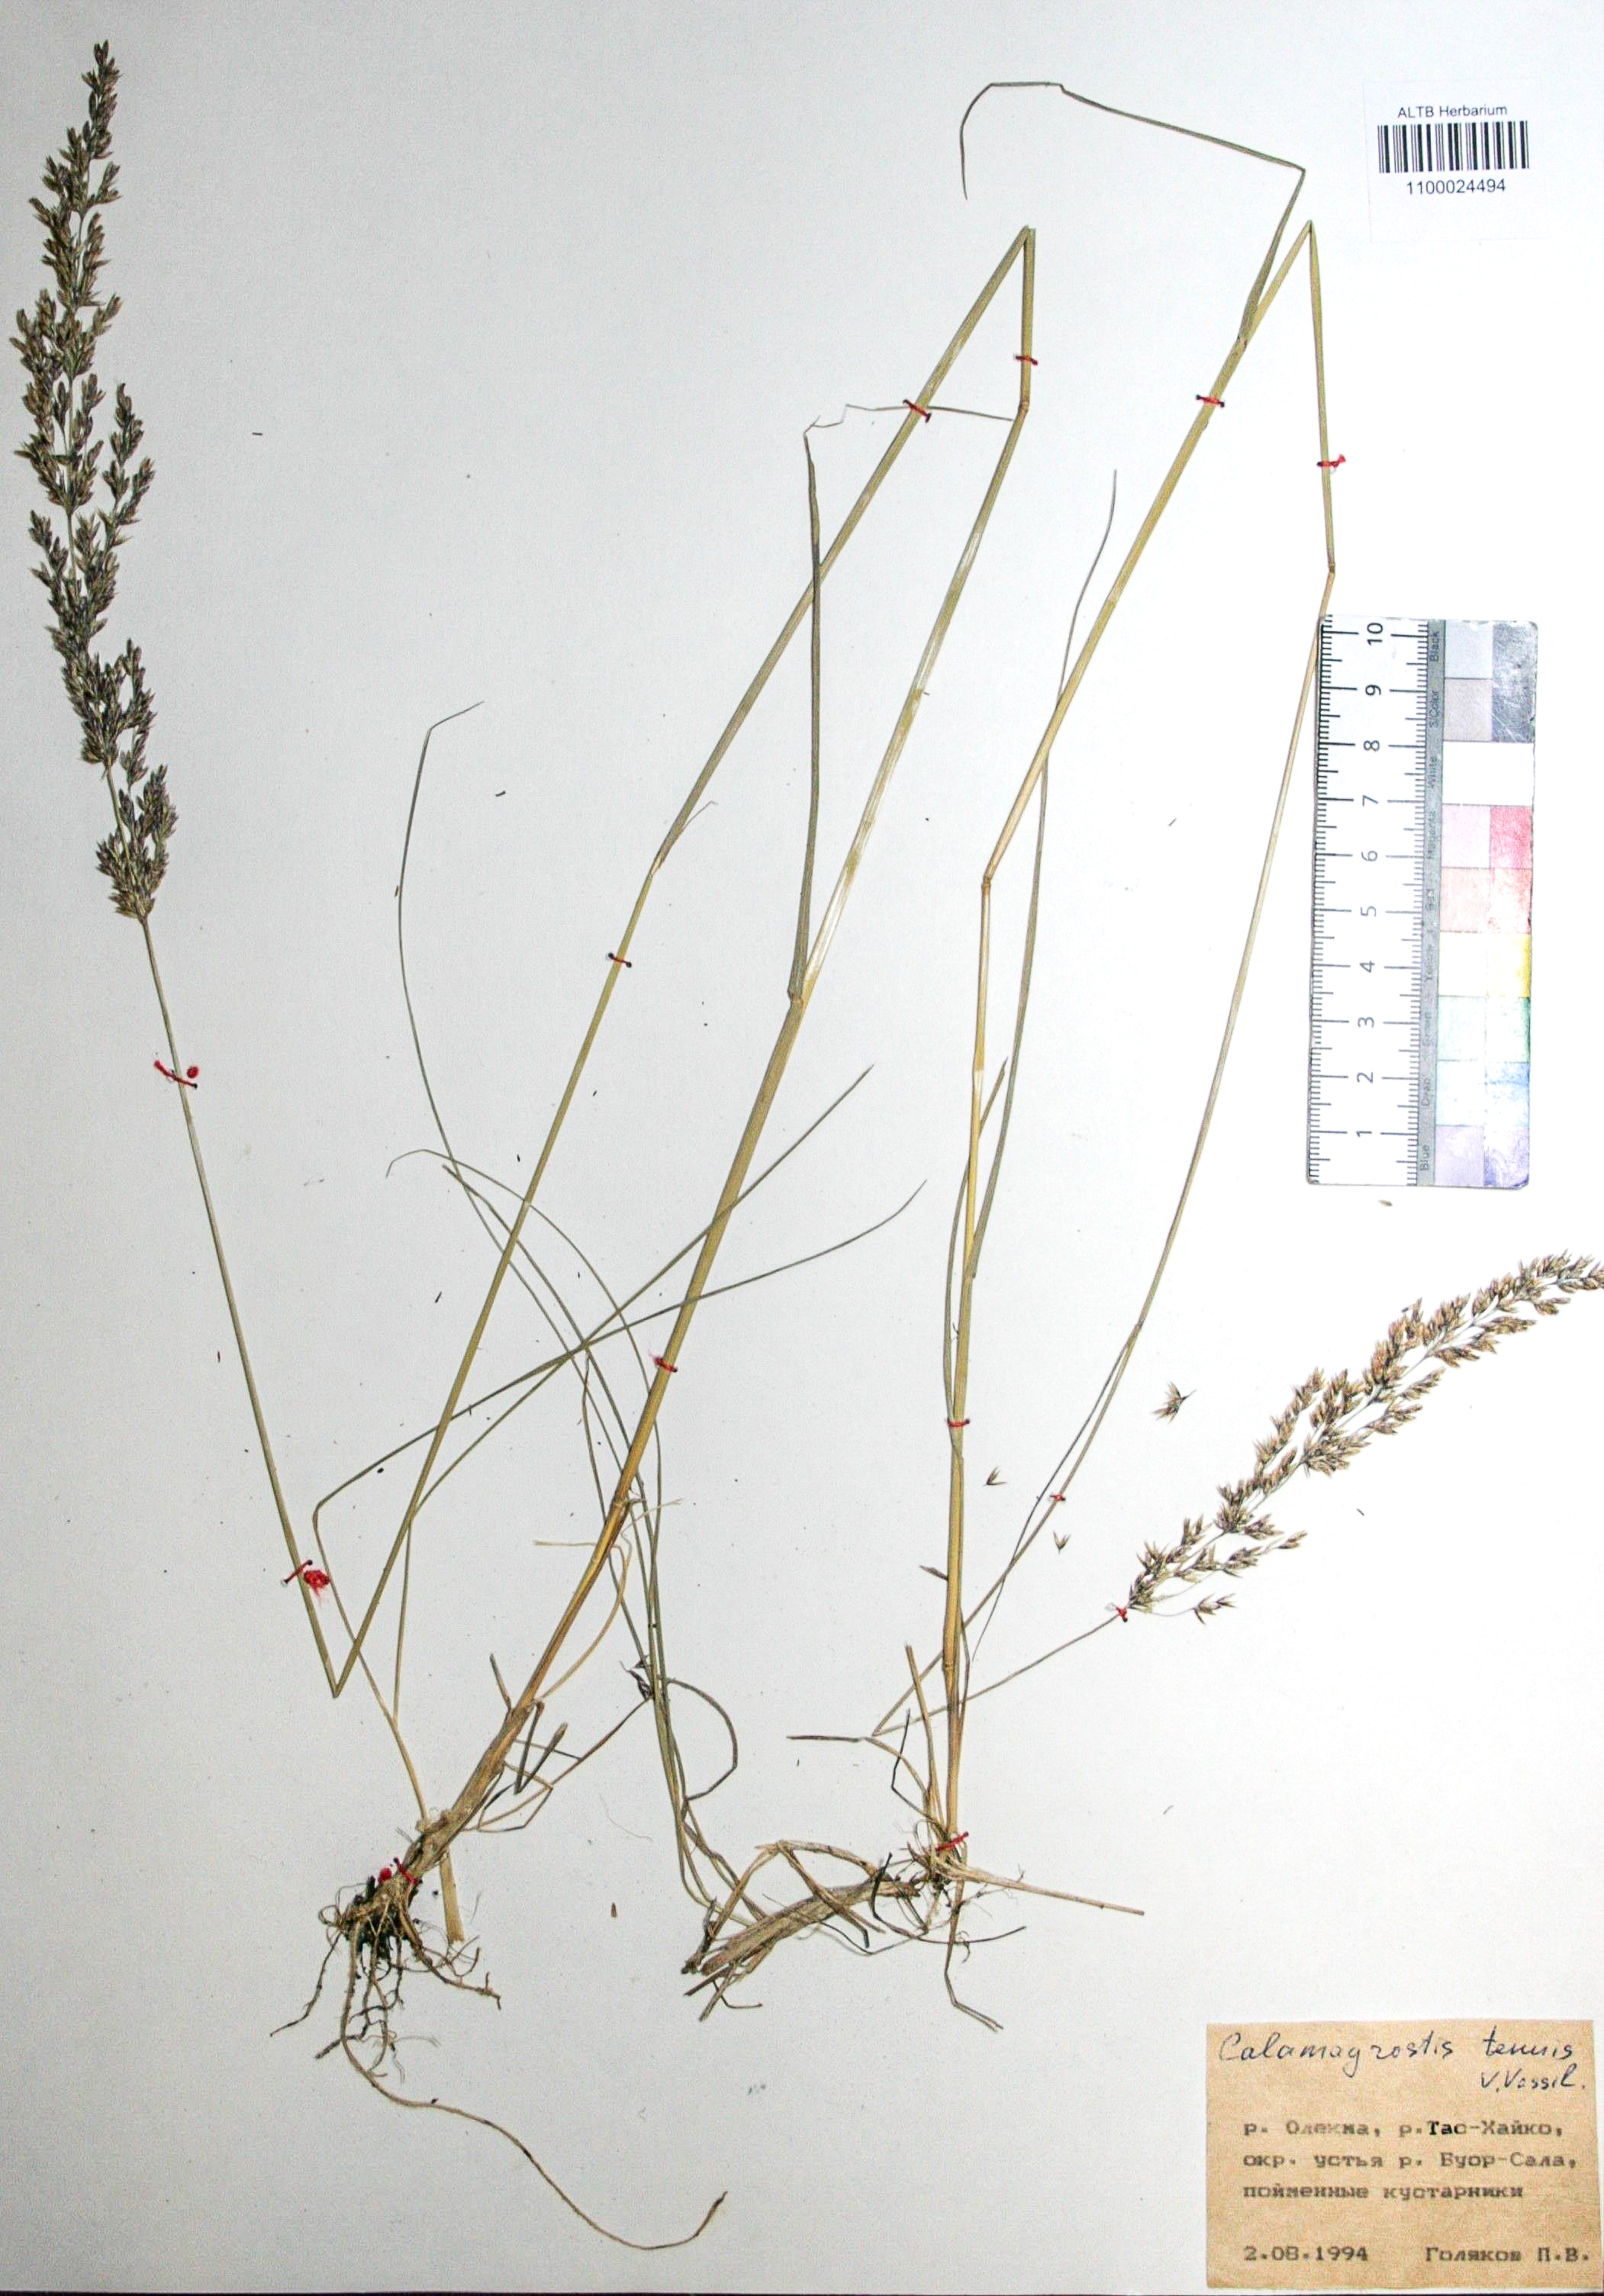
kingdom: Plantae
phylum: Tracheophyta
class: Liliopsida
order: Poales
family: Poaceae
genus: Calamagrostis
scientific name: Calamagrostis angustifolia
